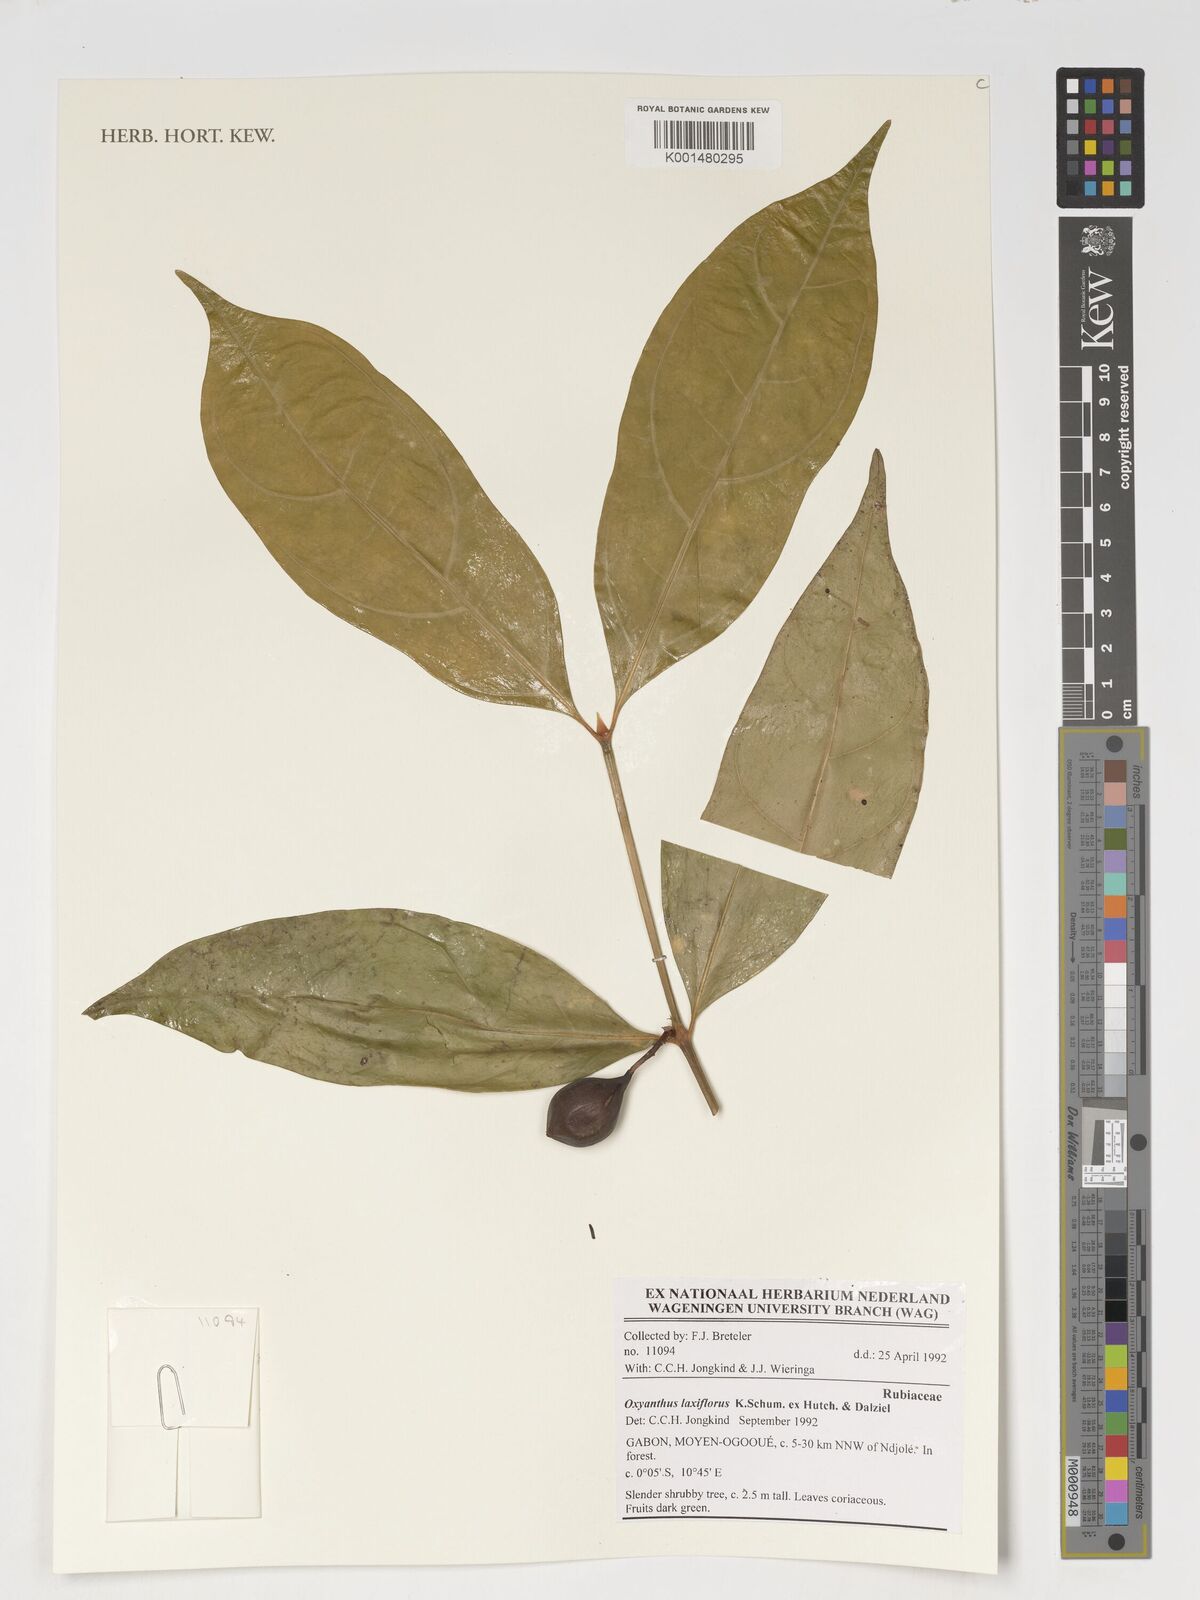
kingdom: Plantae
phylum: Tracheophyta
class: Magnoliopsida
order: Gentianales
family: Rubiaceae
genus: Oxyanthus
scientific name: Oxyanthus laxiflorus
